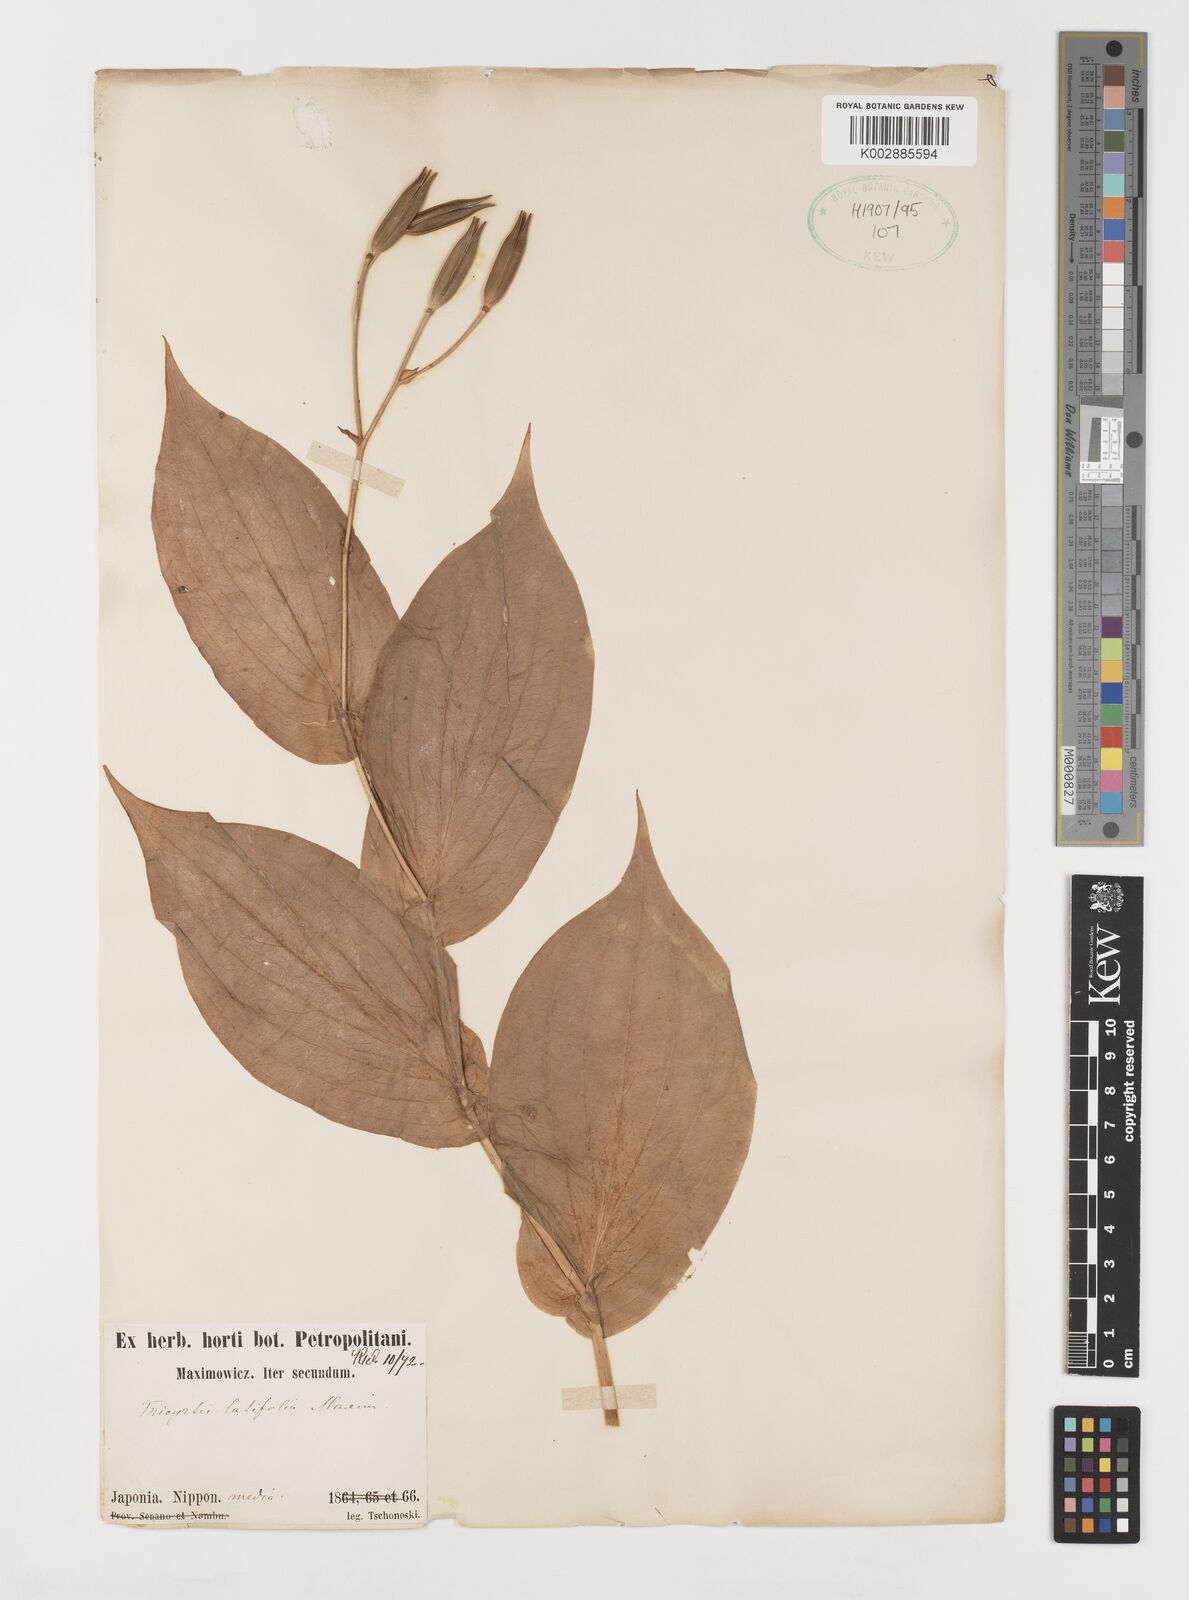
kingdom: Plantae
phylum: Tracheophyta
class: Liliopsida
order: Liliales
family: Liliaceae
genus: Tricyrtis
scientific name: Tricyrtis latifolia
